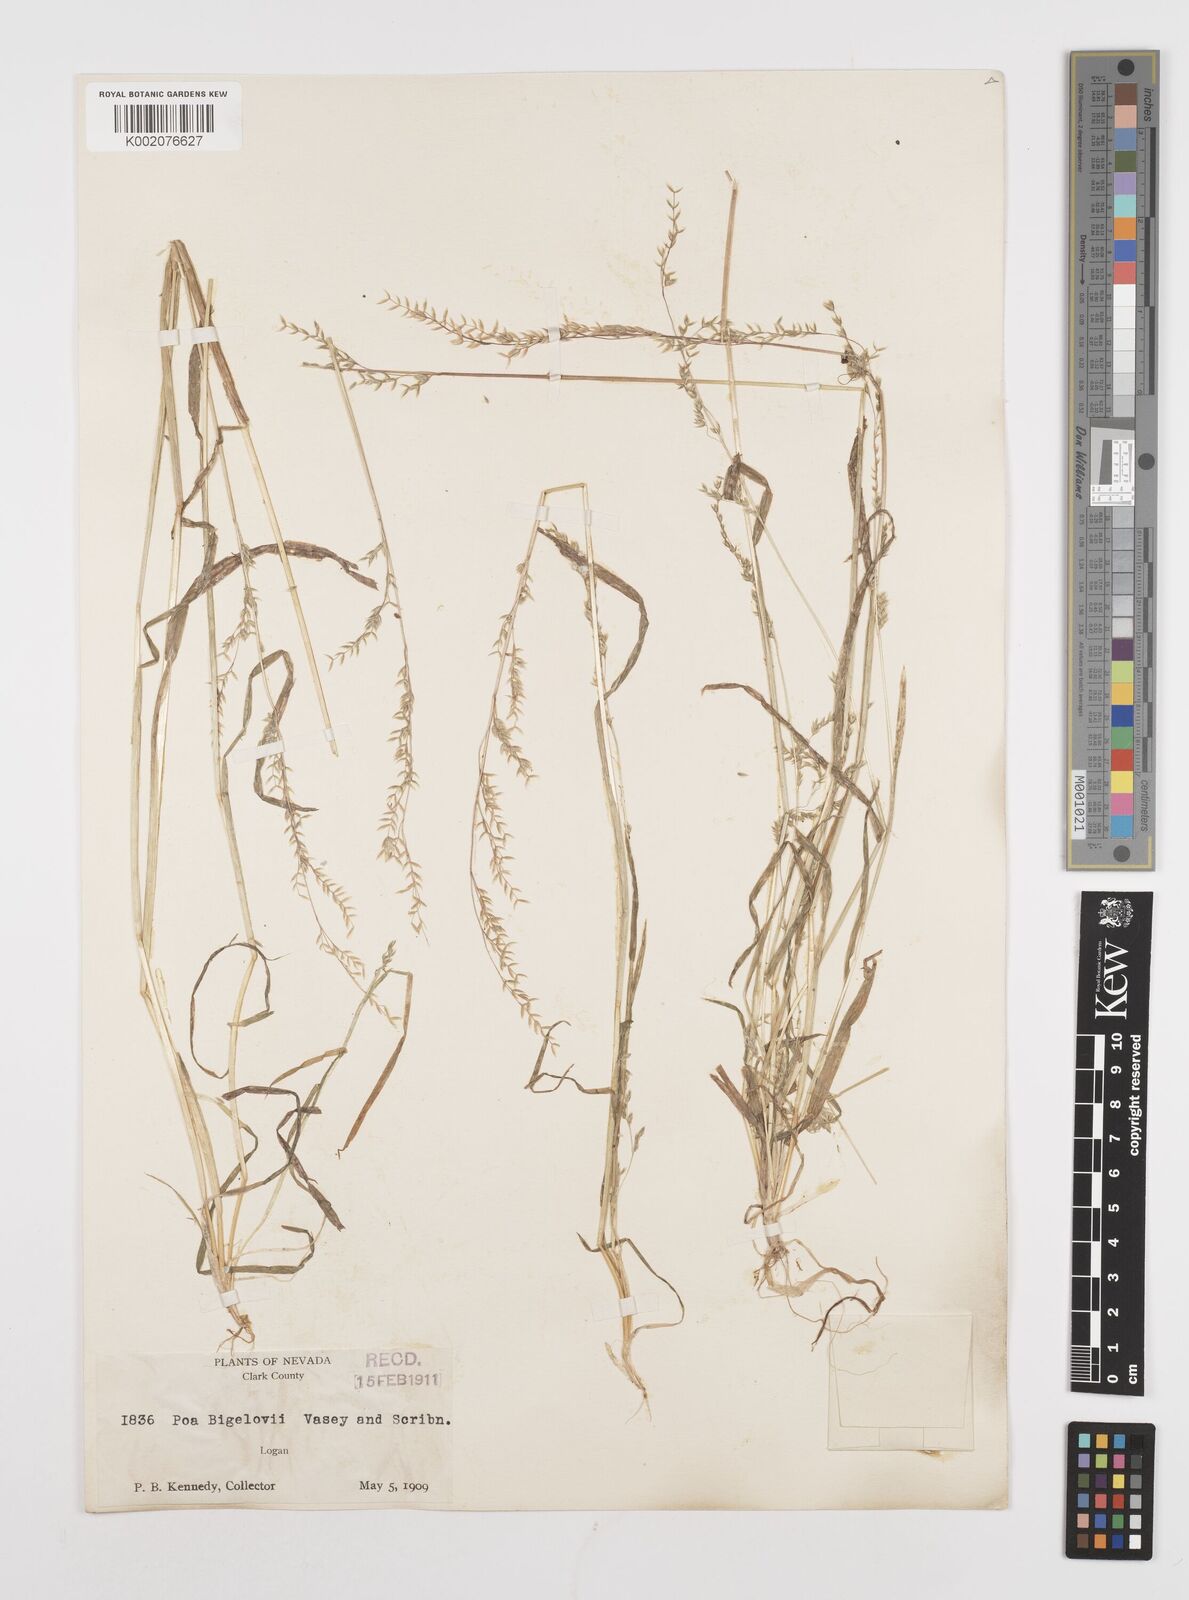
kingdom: Plantae
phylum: Tracheophyta
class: Liliopsida
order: Poales
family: Poaceae
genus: Poa
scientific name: Poa bigelovii
